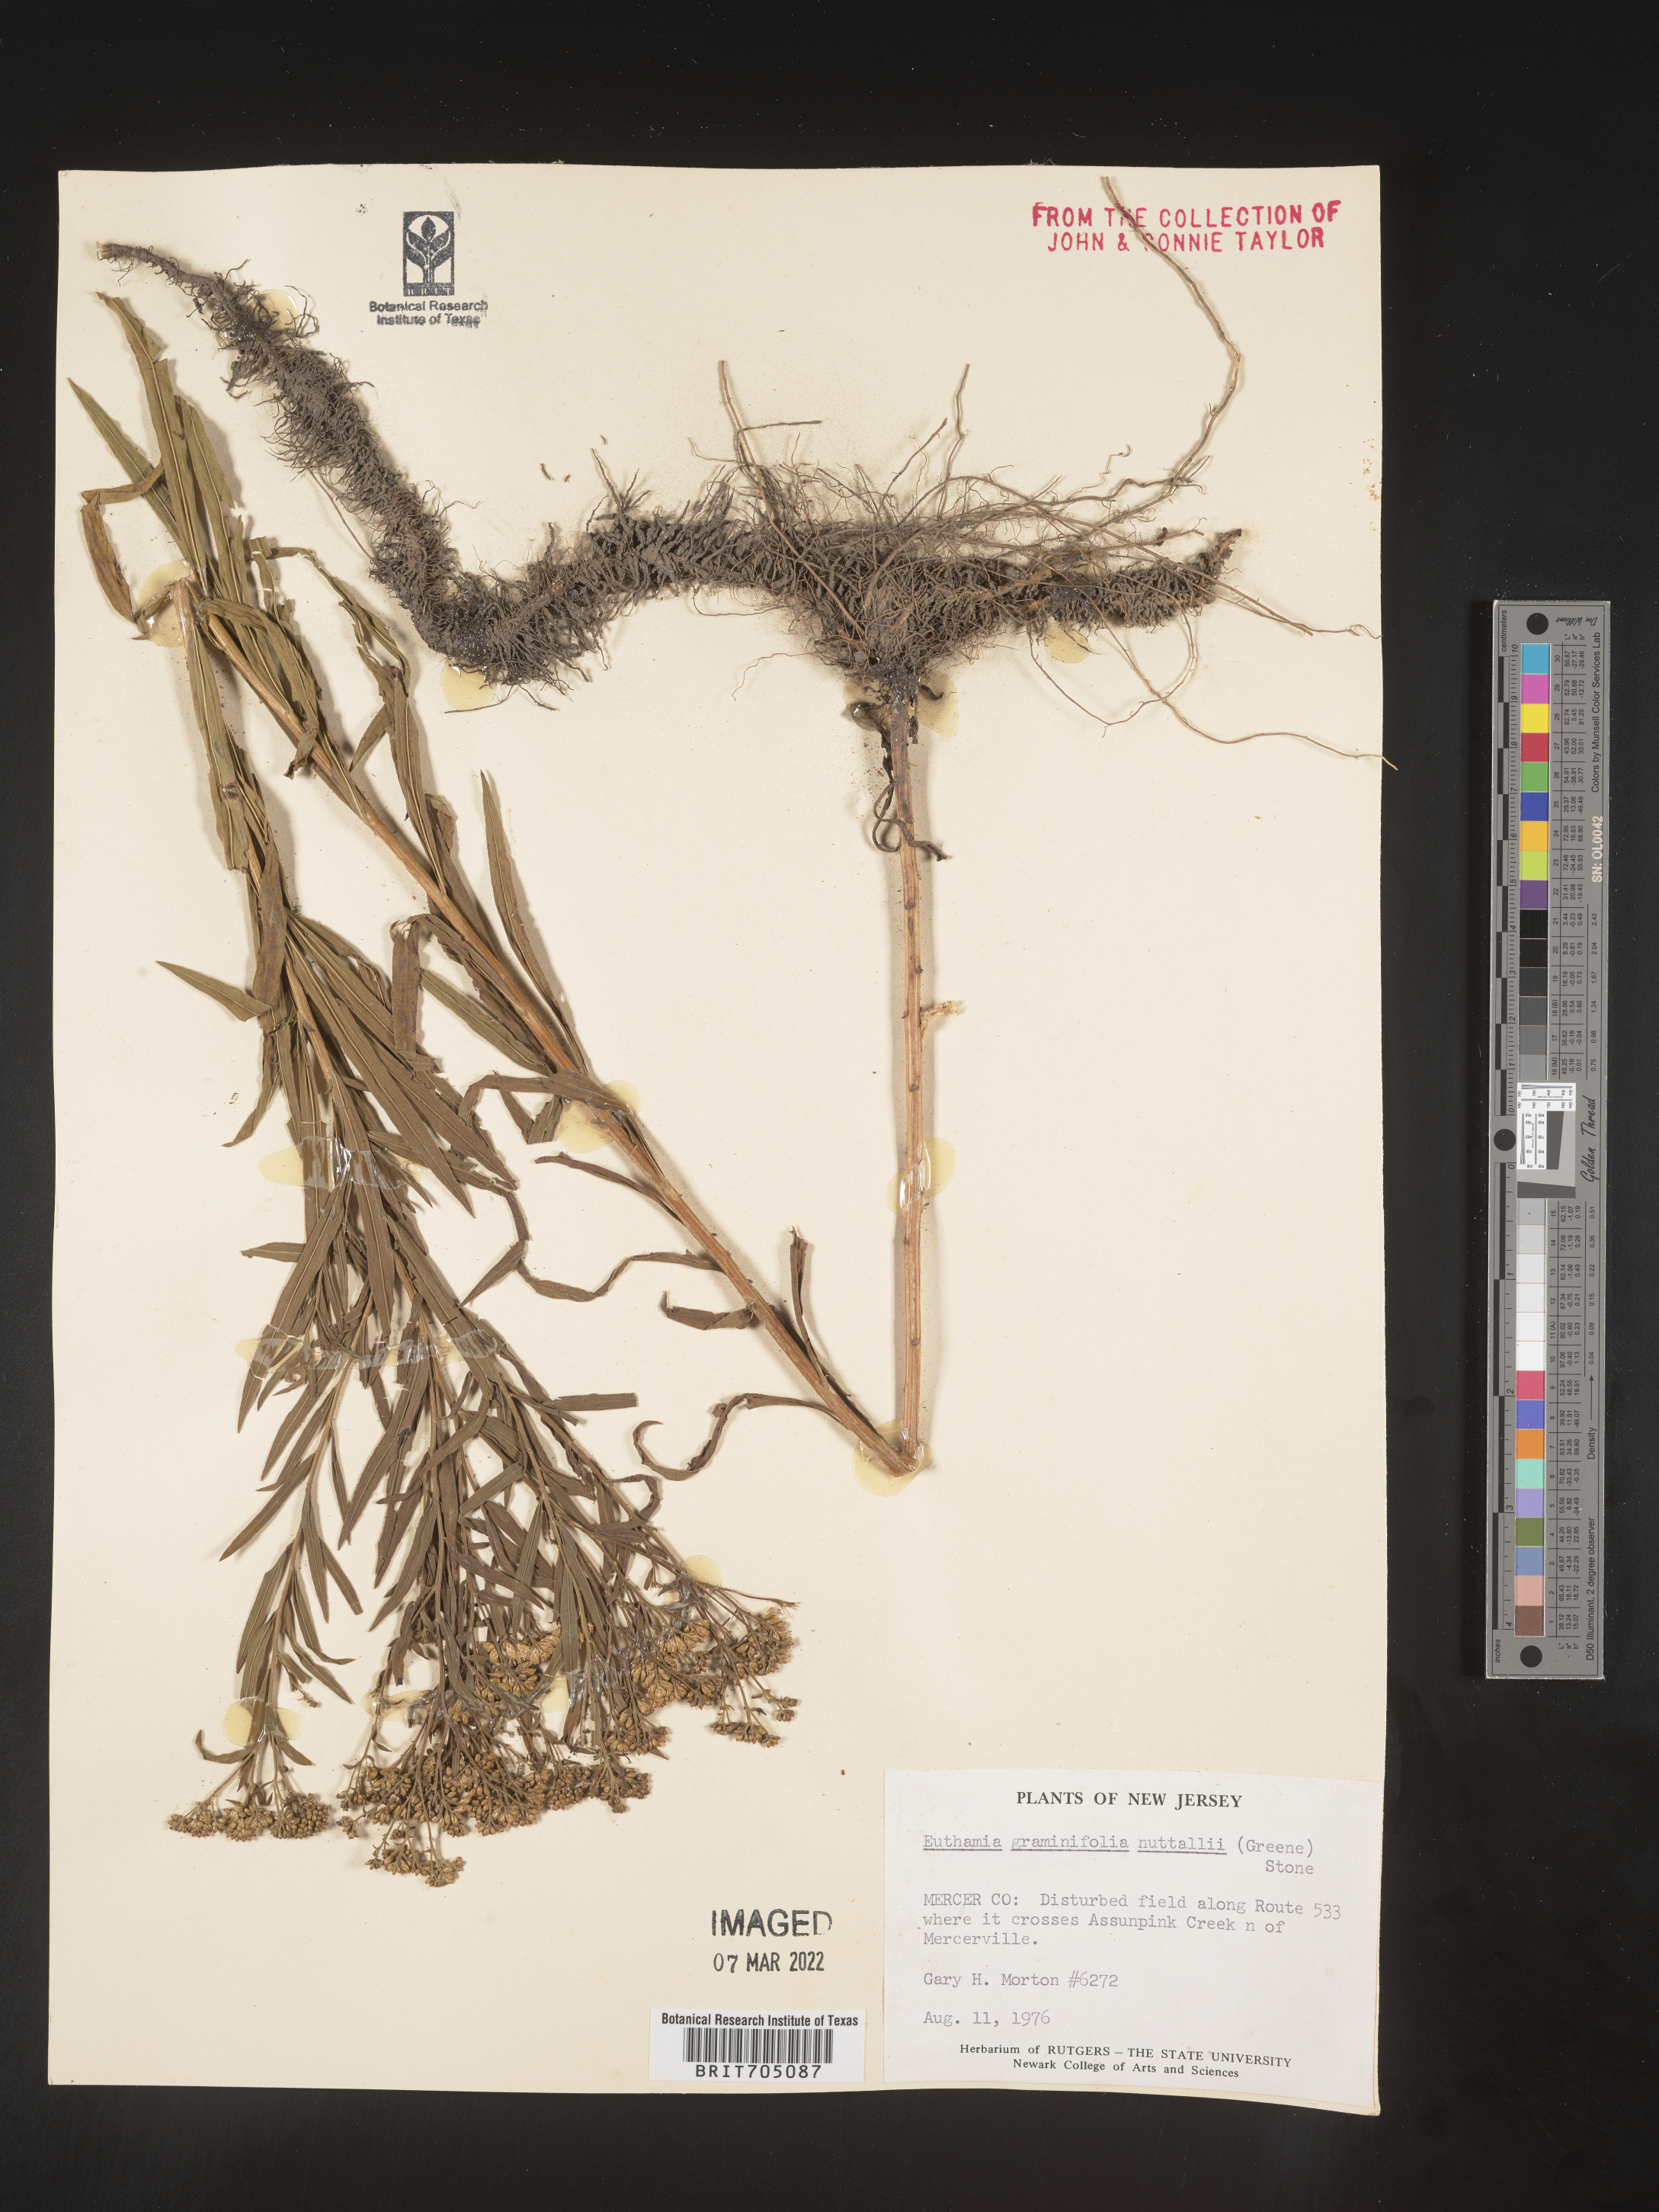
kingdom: Plantae
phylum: Tracheophyta
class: Magnoliopsida
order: Asterales
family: Asteraceae
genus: Euthamia
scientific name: Euthamia graminifolia
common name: Common goldentop
